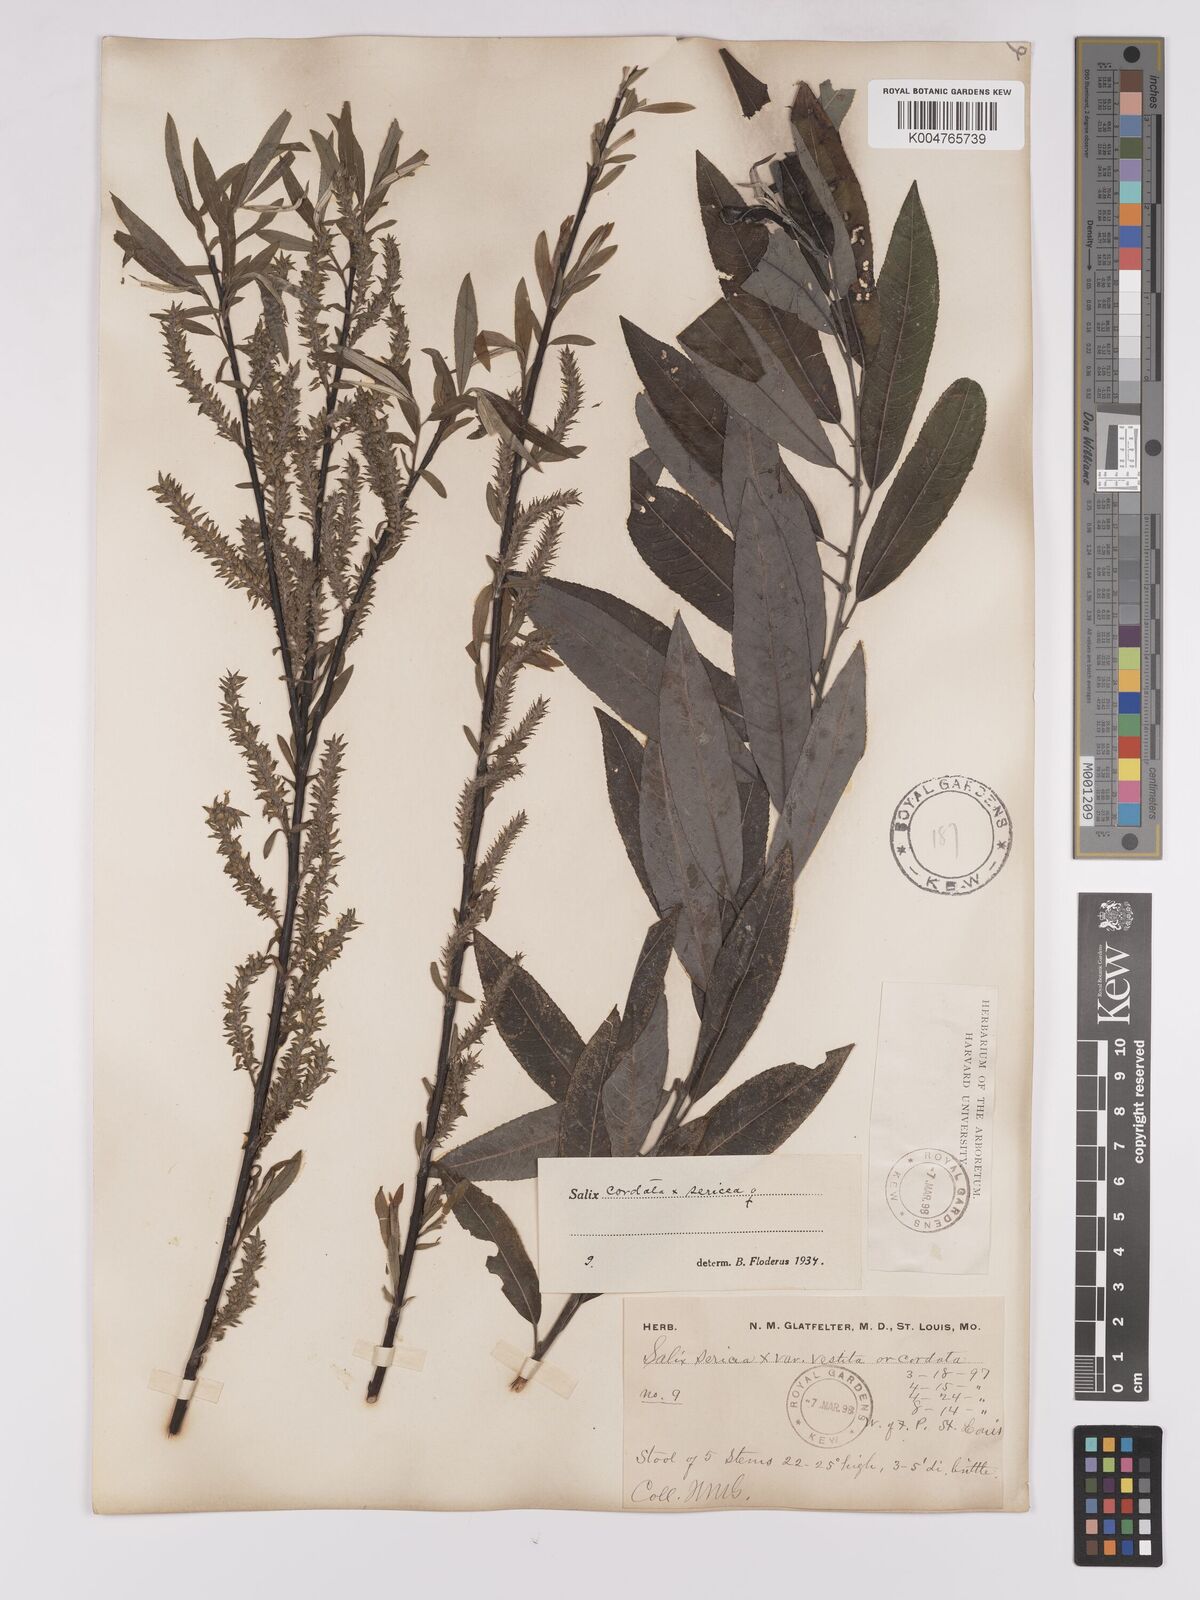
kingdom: Plantae
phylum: Tracheophyta
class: Magnoliopsida
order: Malpighiales
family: Salicaceae
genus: Salix
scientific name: Salix cordata
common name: Heart-leaf willow
